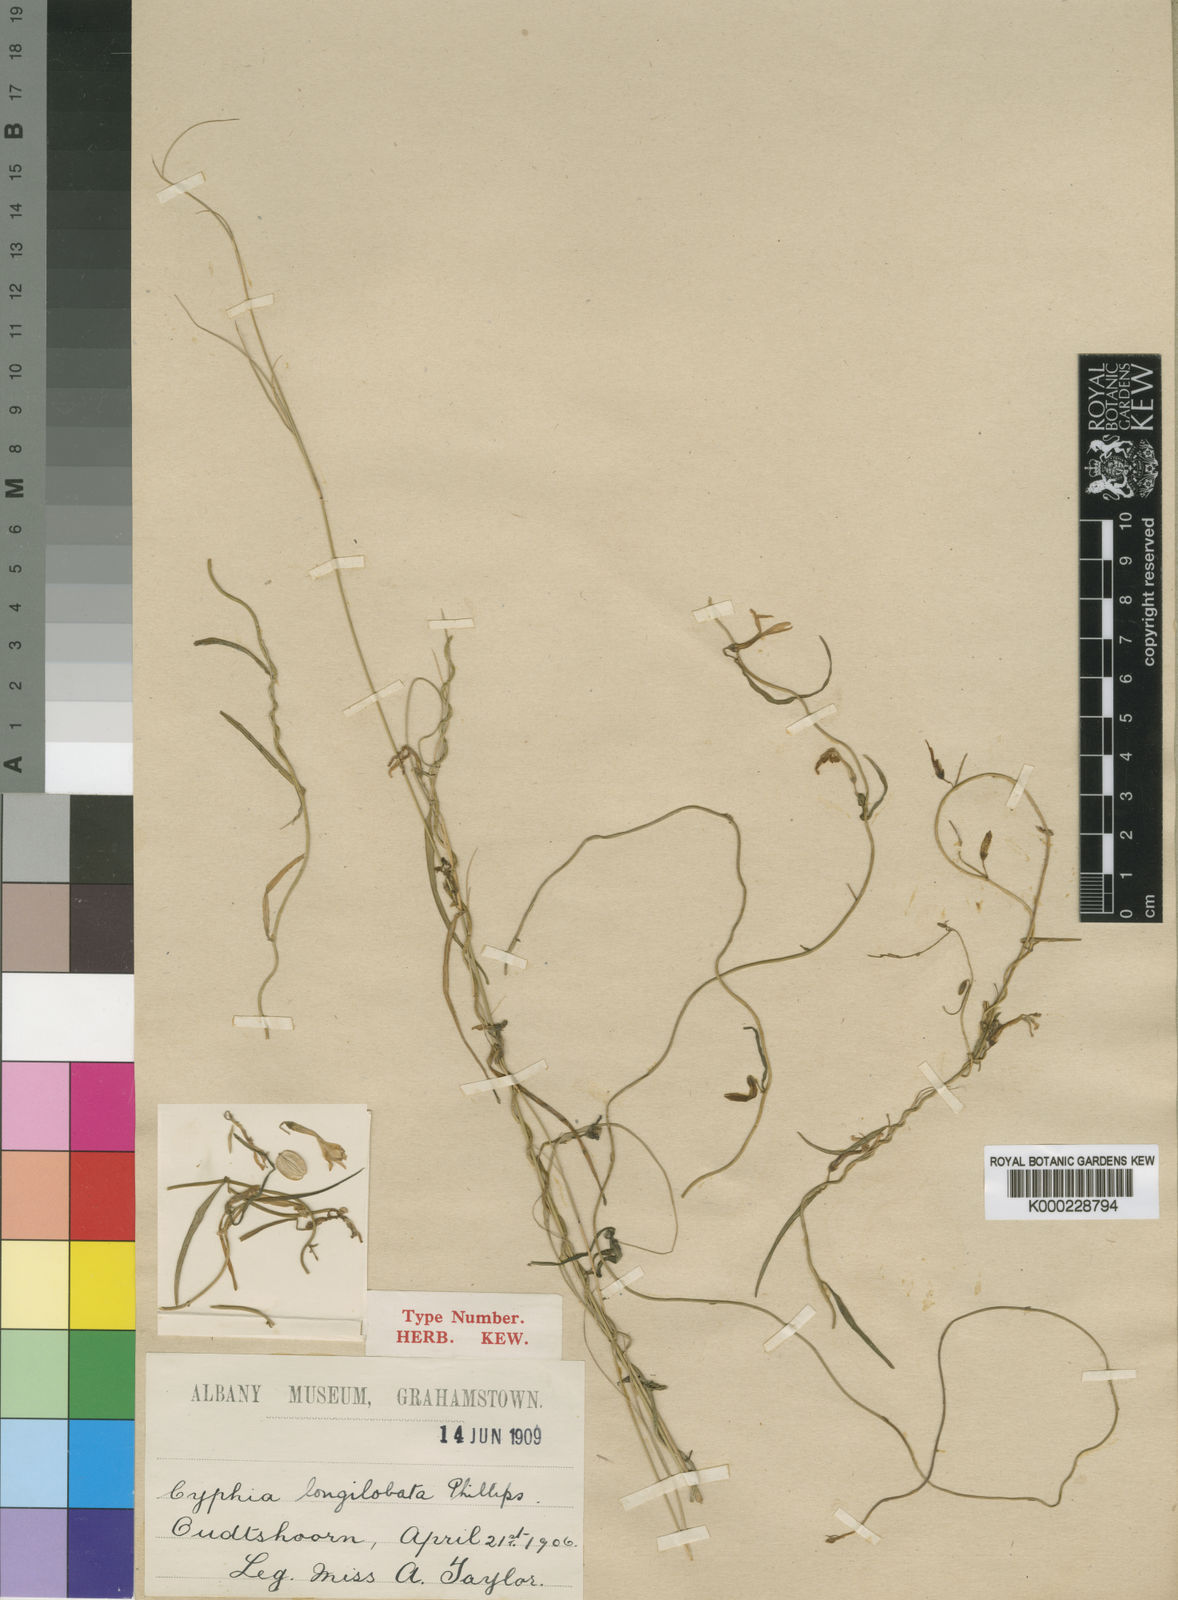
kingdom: Plantae
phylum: Tracheophyta
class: Magnoliopsida
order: Asterales
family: Campanulaceae
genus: Cyphia
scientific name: Cyphia longilobata
